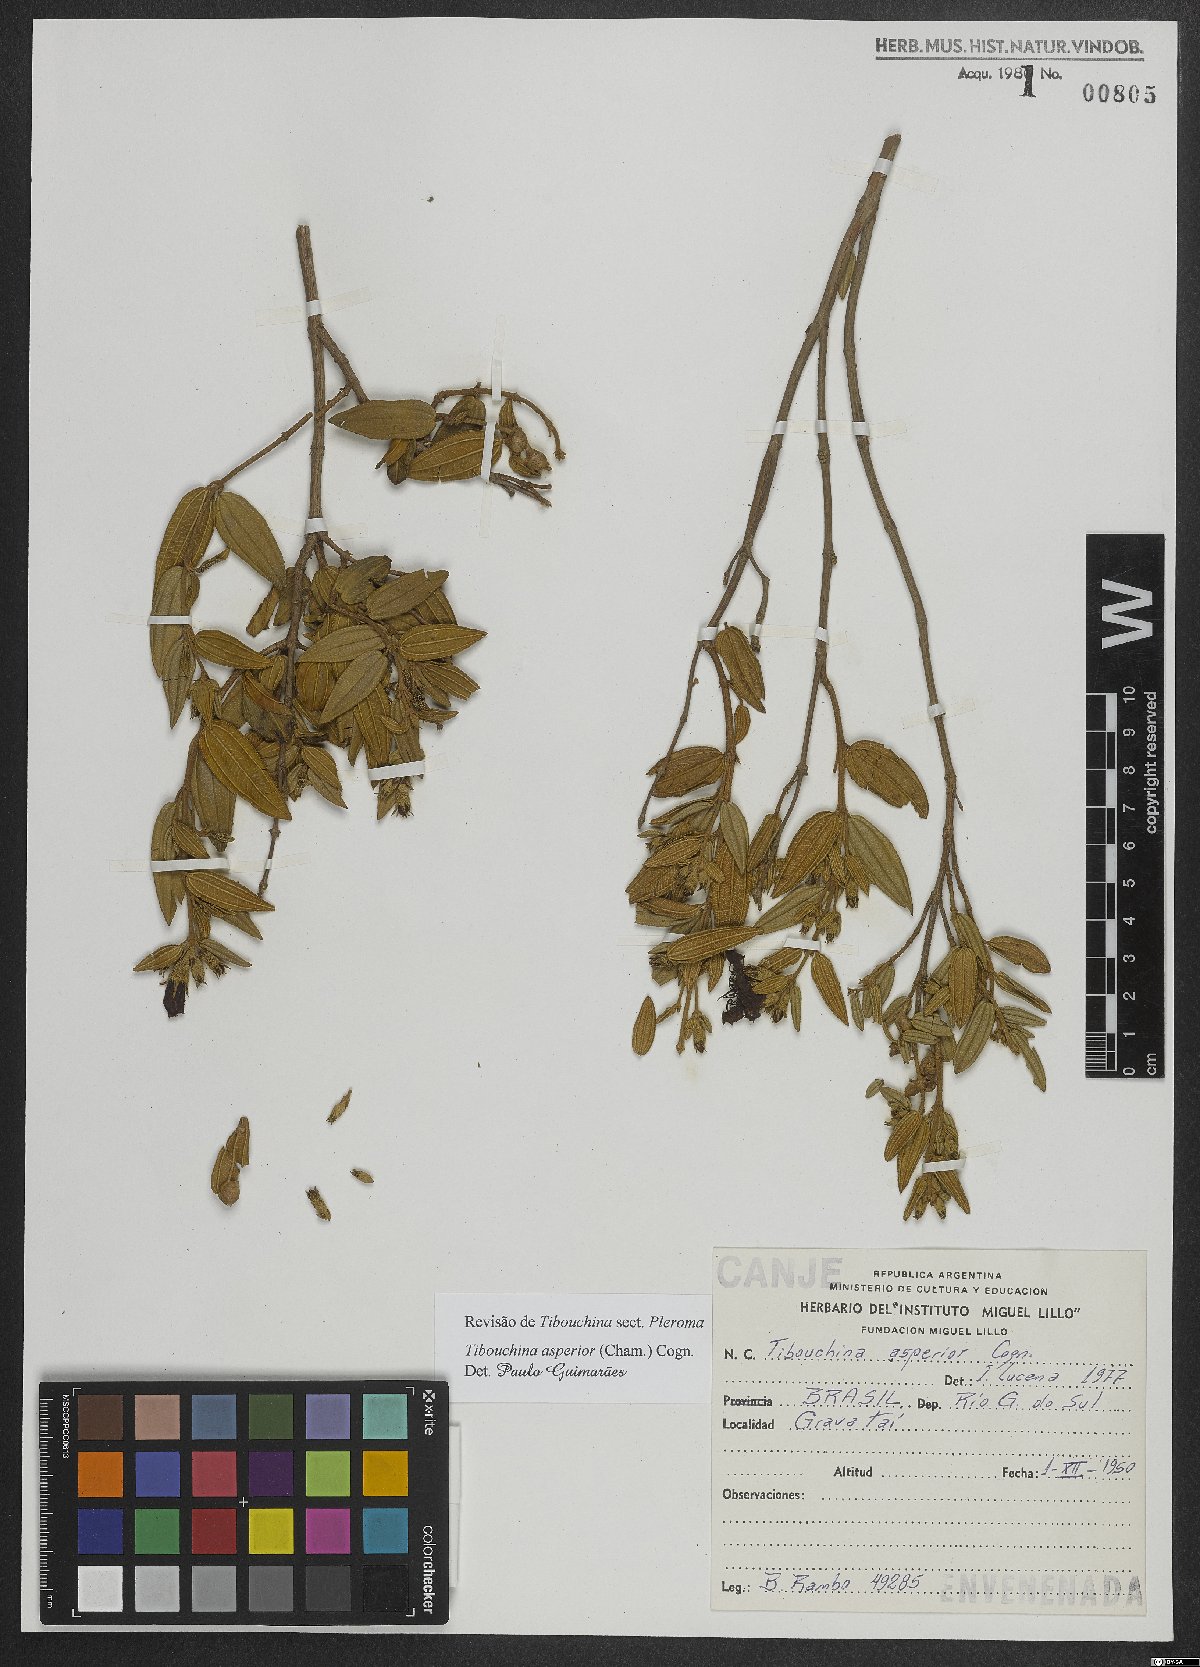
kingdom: Plantae
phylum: Tracheophyta
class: Magnoliopsida
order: Myrtales
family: Melastomataceae
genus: Pleroma
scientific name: Pleroma asperius
